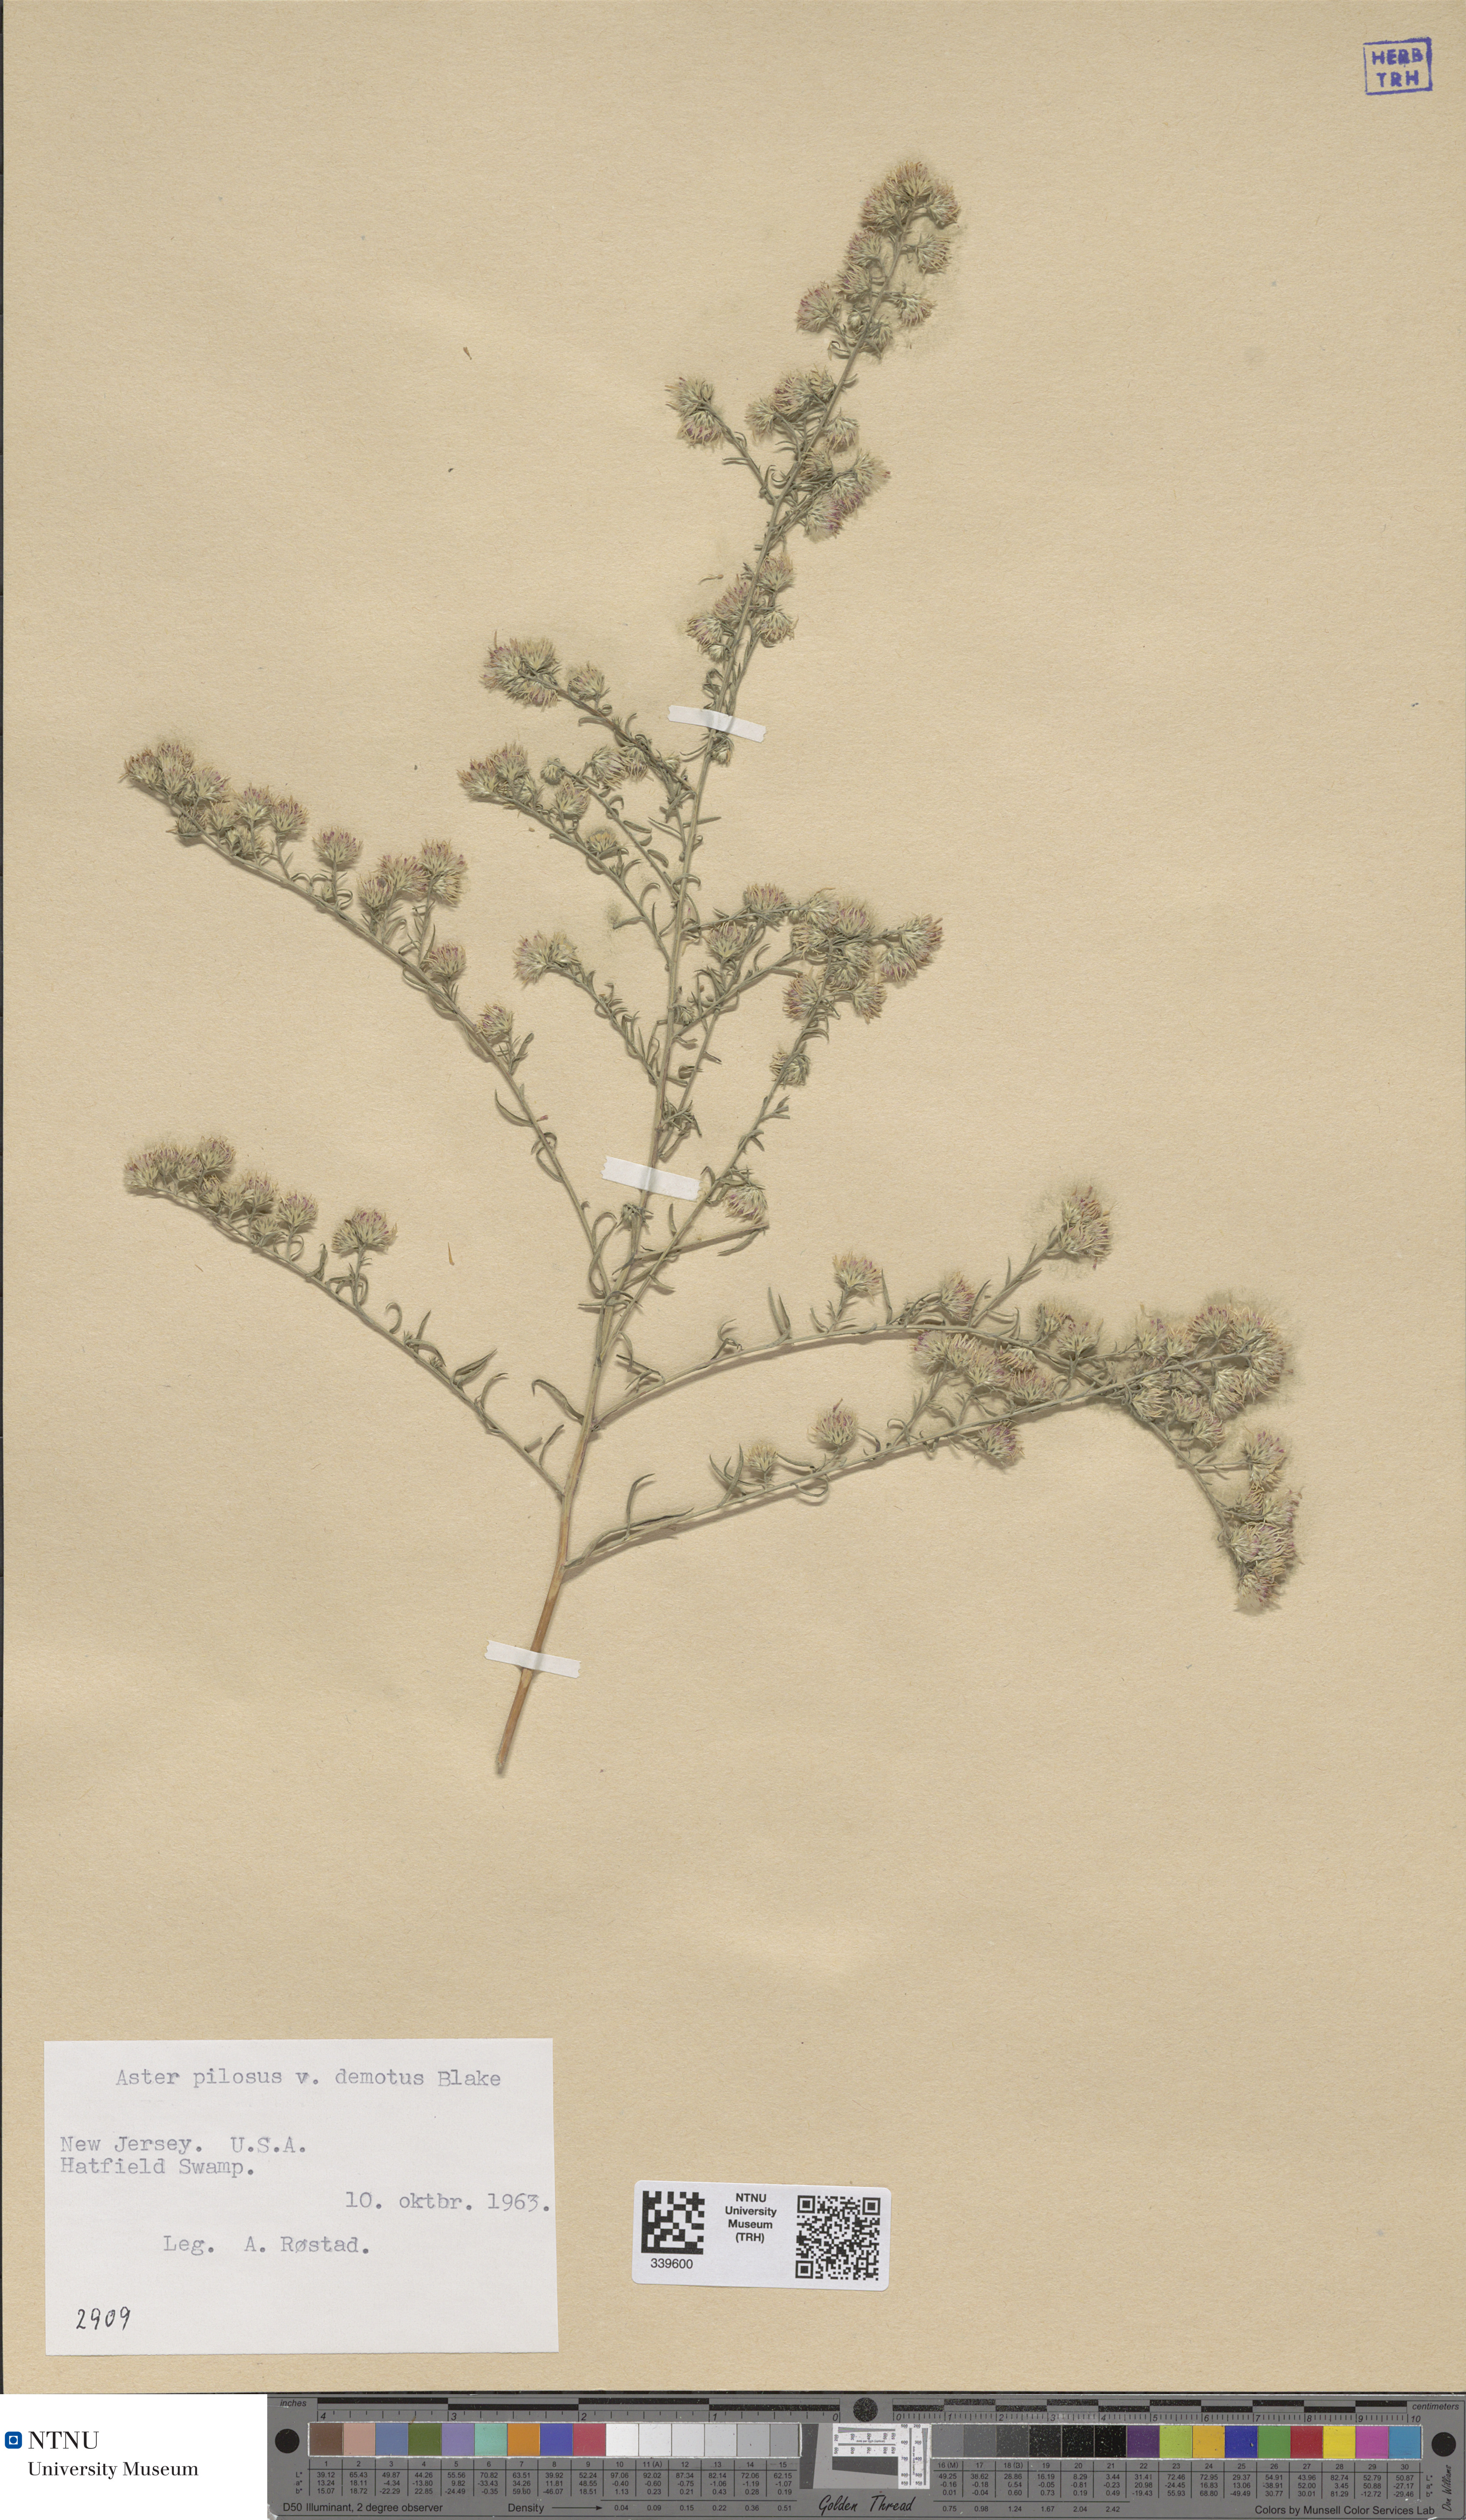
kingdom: Plantae
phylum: Tracheophyta
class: Magnoliopsida
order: Asterales
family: Asteraceae
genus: Symphyotrichum
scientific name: Symphyotrichum pilosum
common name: Awl aster
